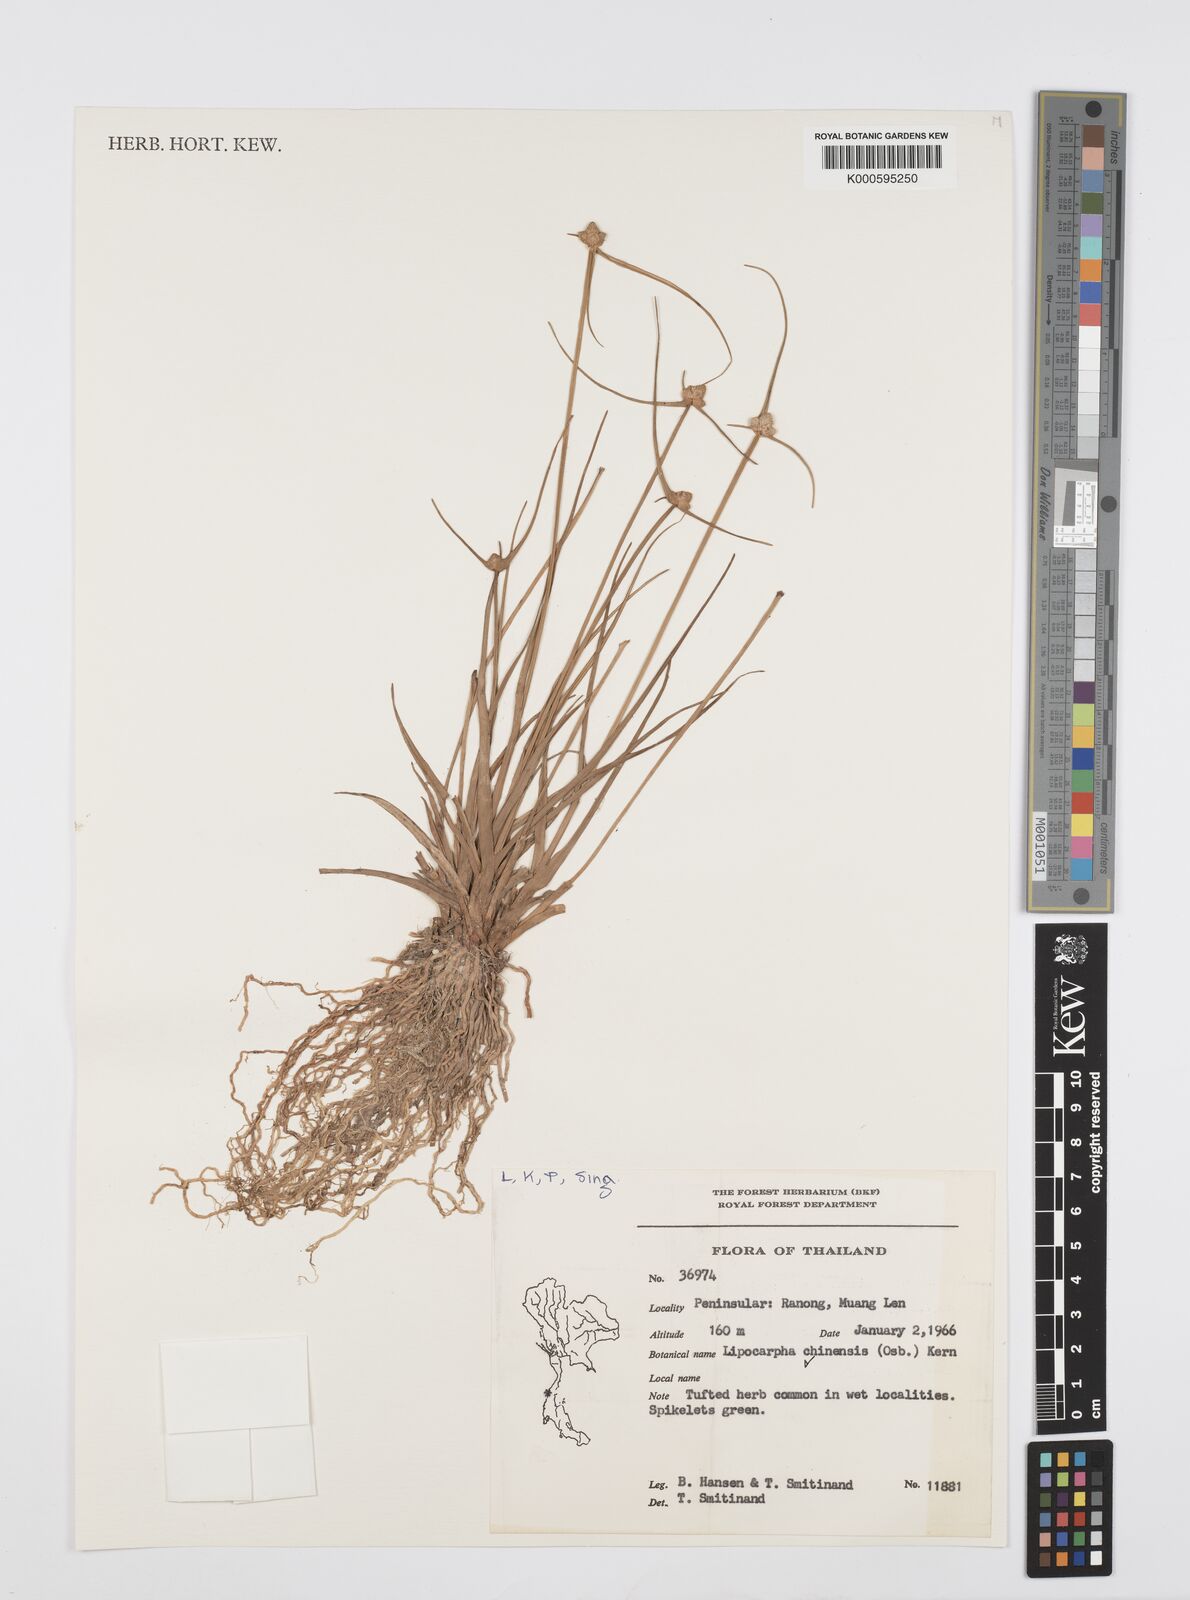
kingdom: Plantae
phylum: Tracheophyta
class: Liliopsida
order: Poales
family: Cyperaceae
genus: Cyperus
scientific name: Cyperus albescens
